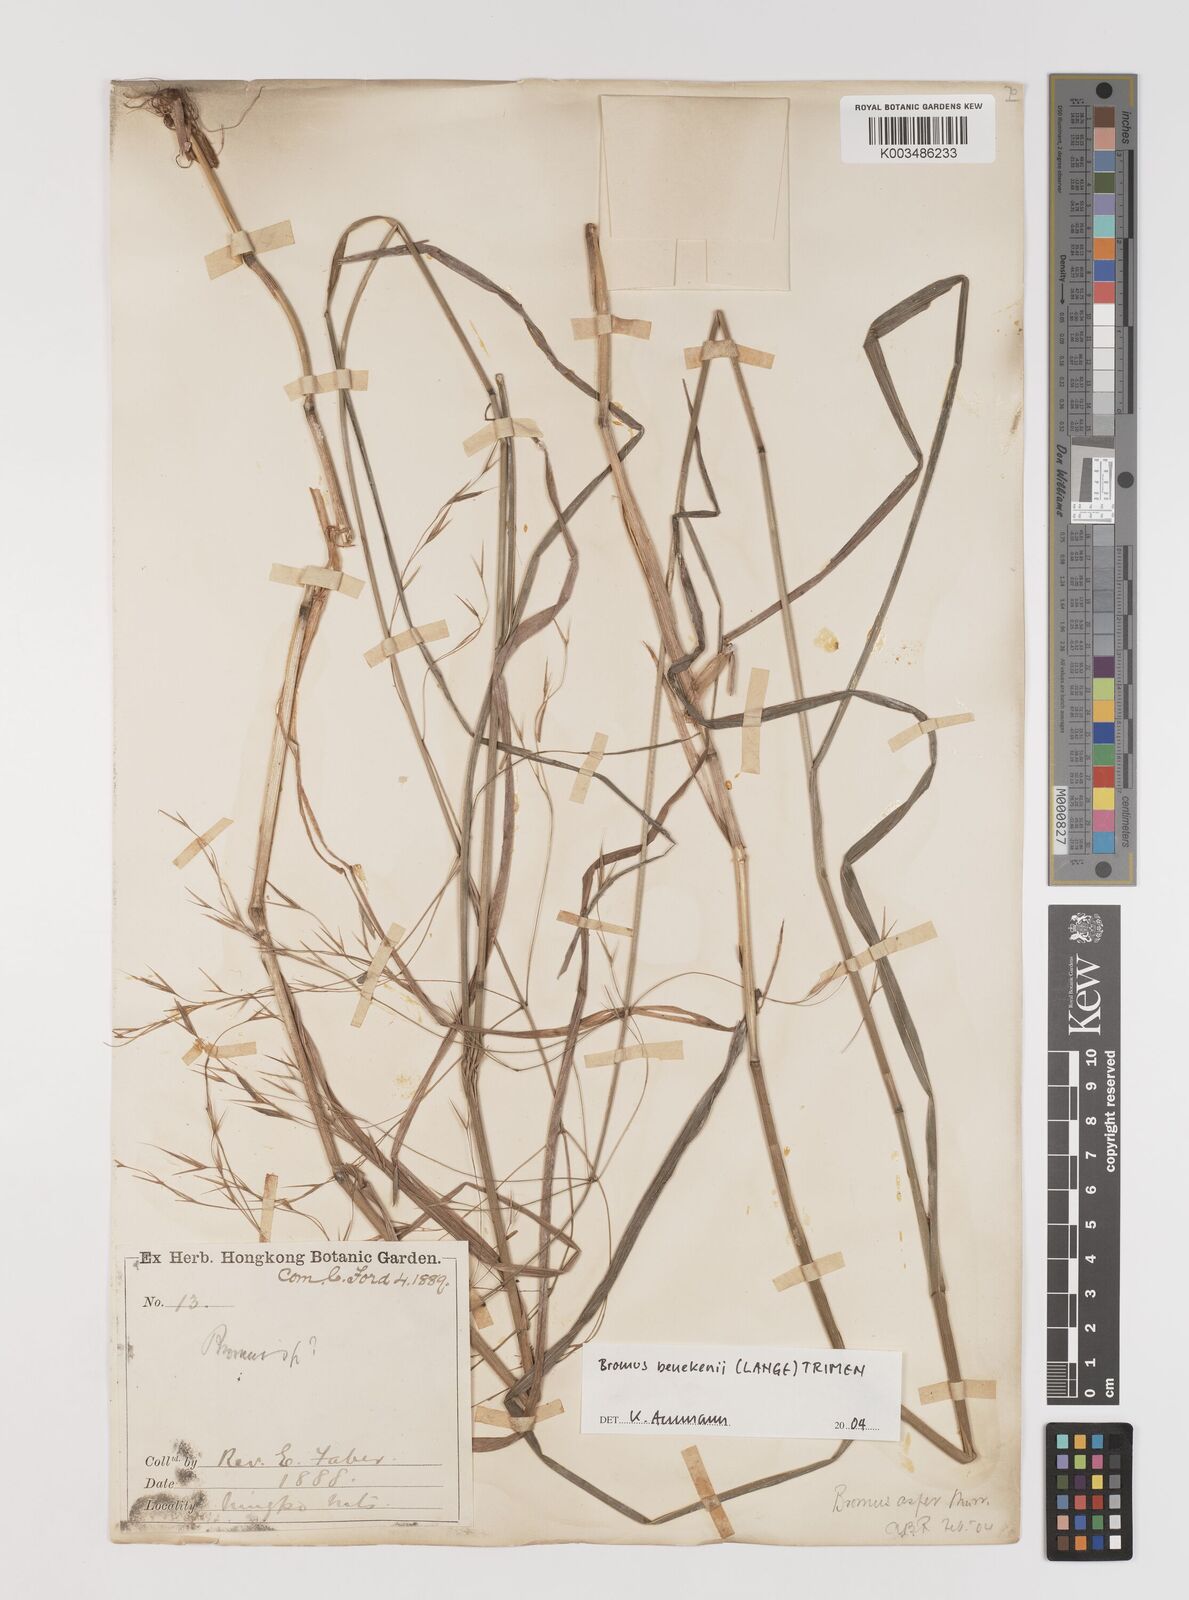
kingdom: Plantae
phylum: Tracheophyta
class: Liliopsida
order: Poales
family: Poaceae
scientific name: Poaceae
